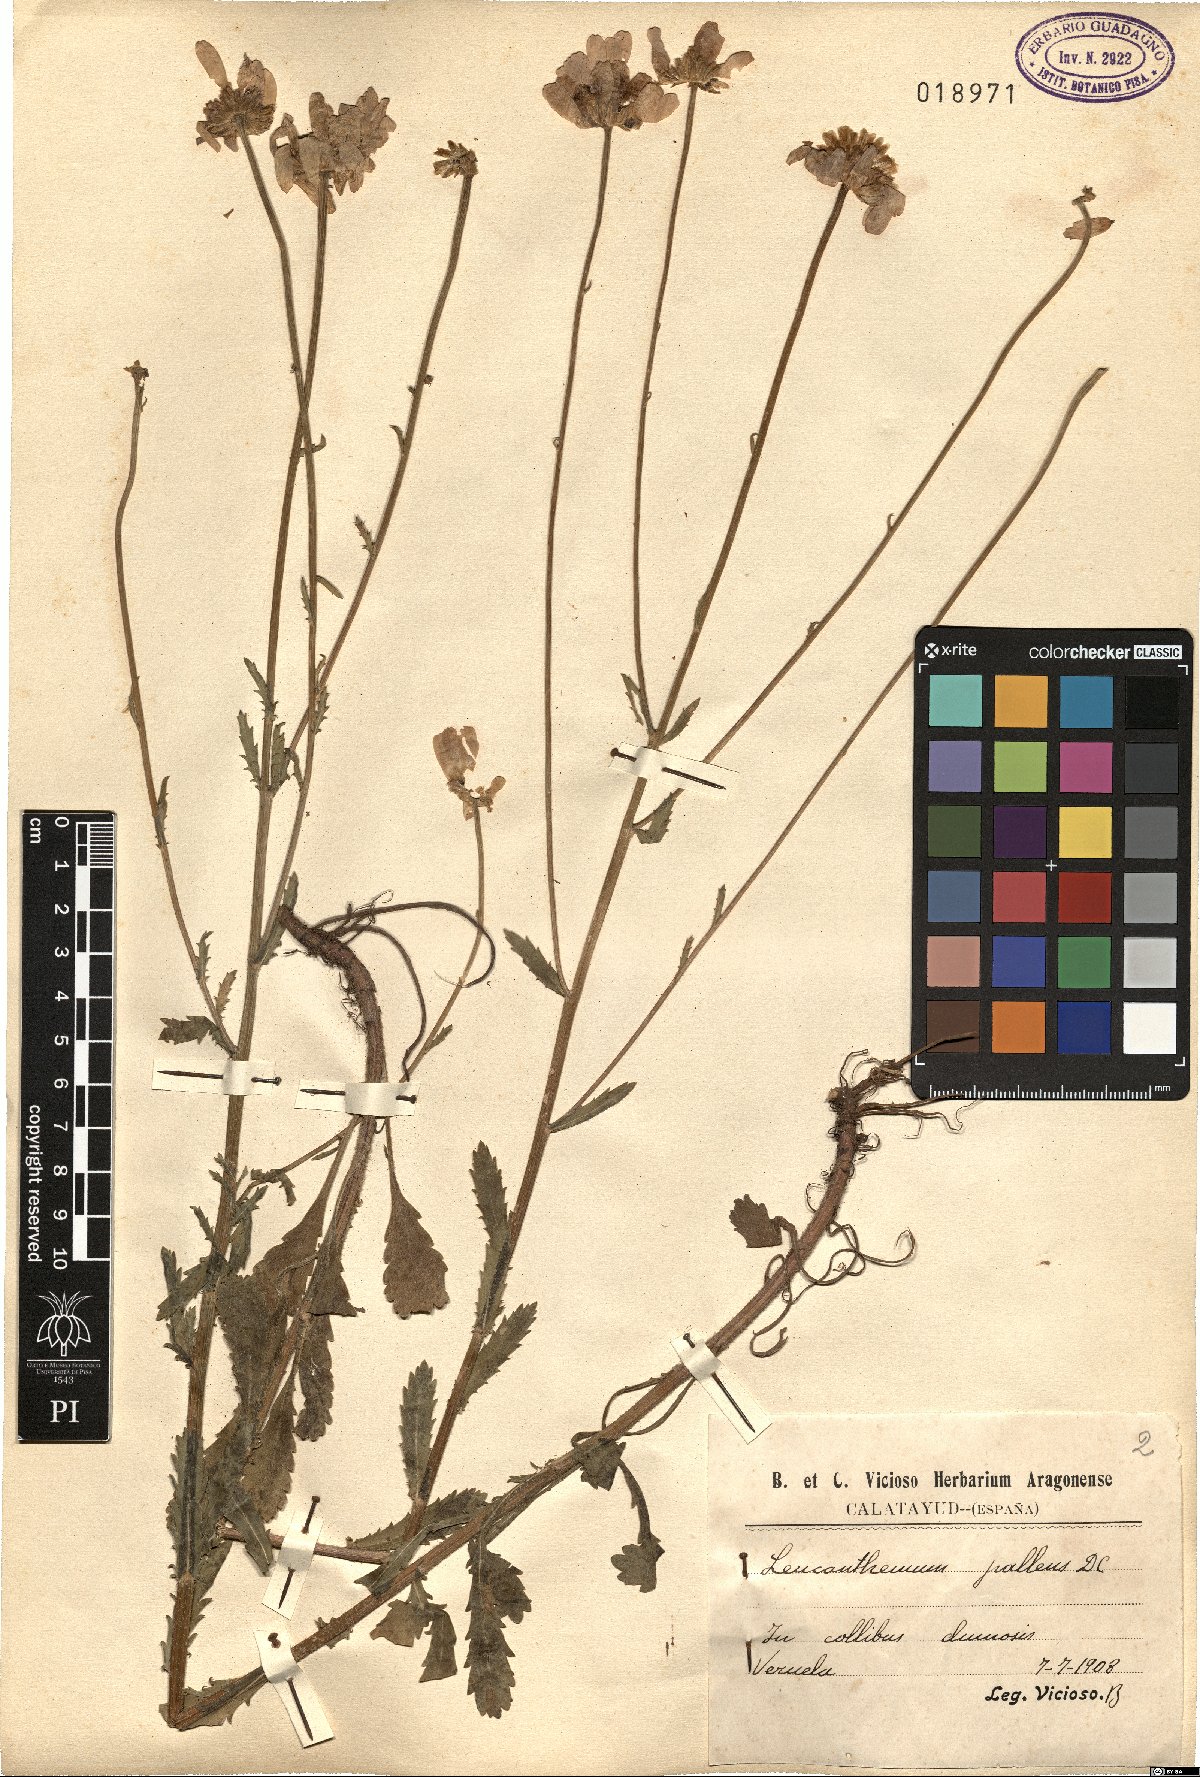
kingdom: Plantae
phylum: Tracheophyta
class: Magnoliopsida
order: Asterales
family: Asteraceae
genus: Leucanthemum
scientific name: Leucanthemum pallens
